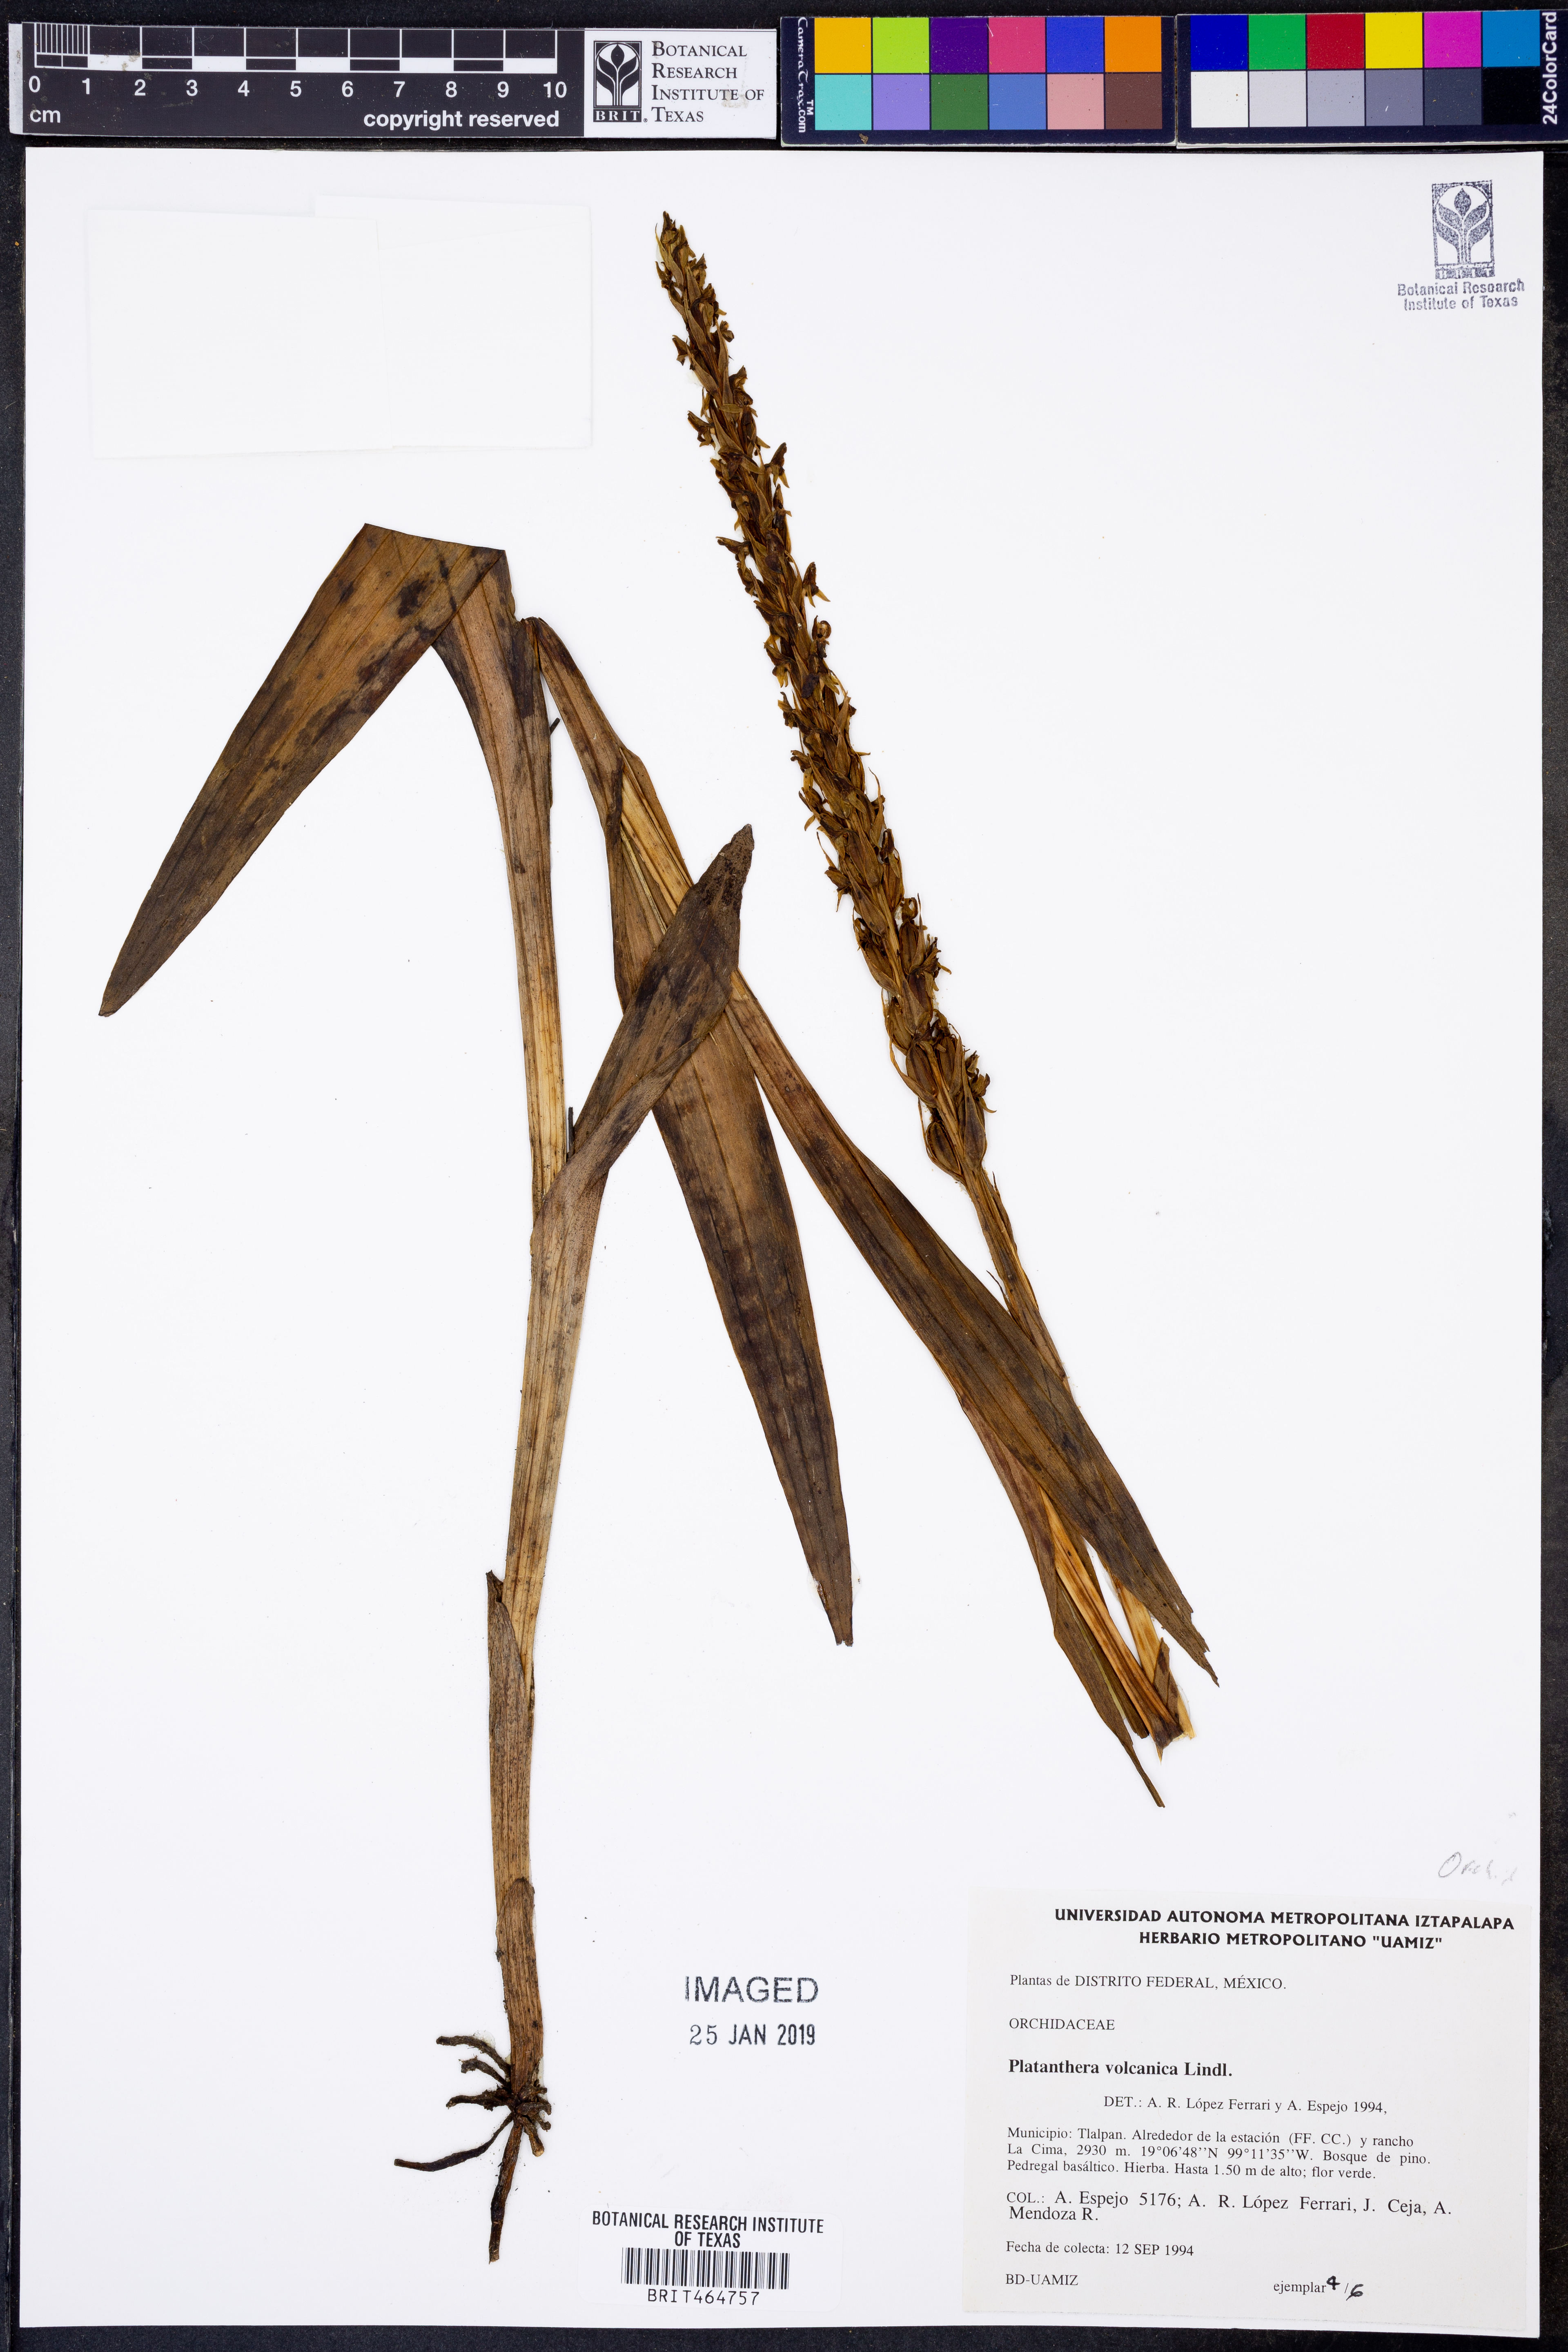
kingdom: Plantae
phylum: Tracheophyta
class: Liliopsida
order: Asparagales
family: Orchidaceae
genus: Coenoemersa
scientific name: Coenoemersa volcanica
